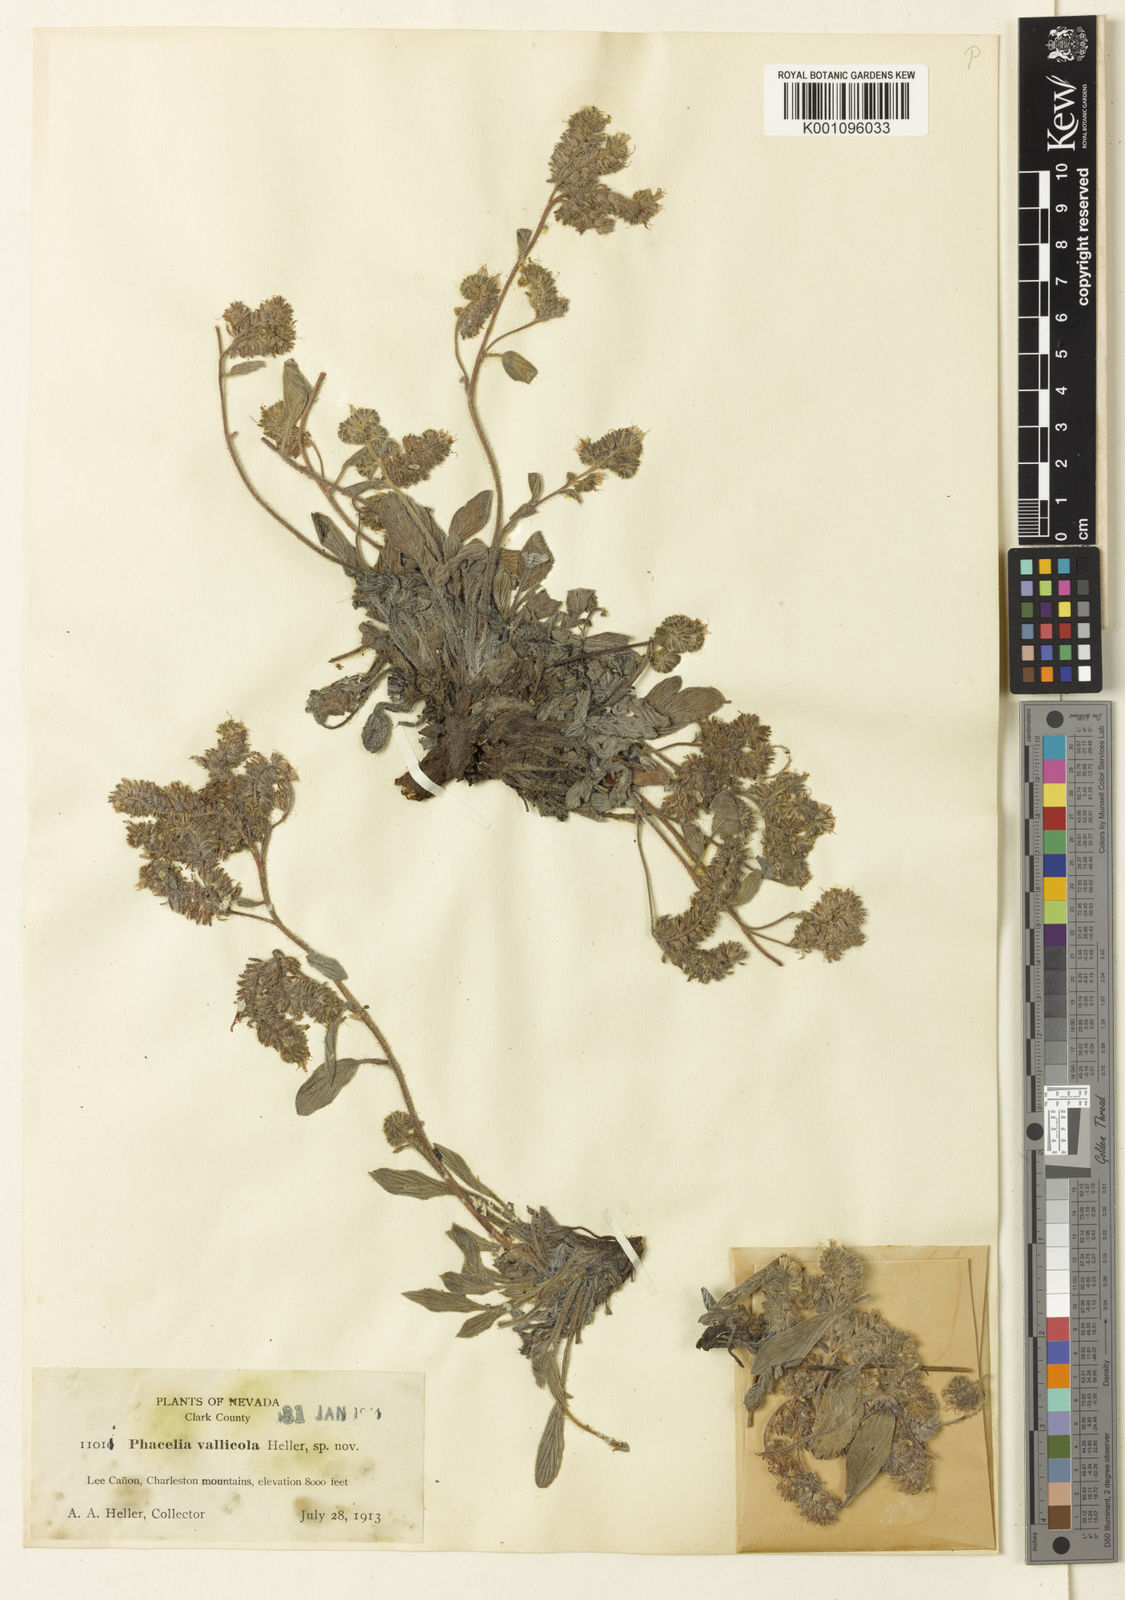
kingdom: Plantae
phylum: Tracheophyta
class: Magnoliopsida
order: Boraginales
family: Hydrophyllaceae
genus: Phacelia
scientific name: Phacelia vallicola
